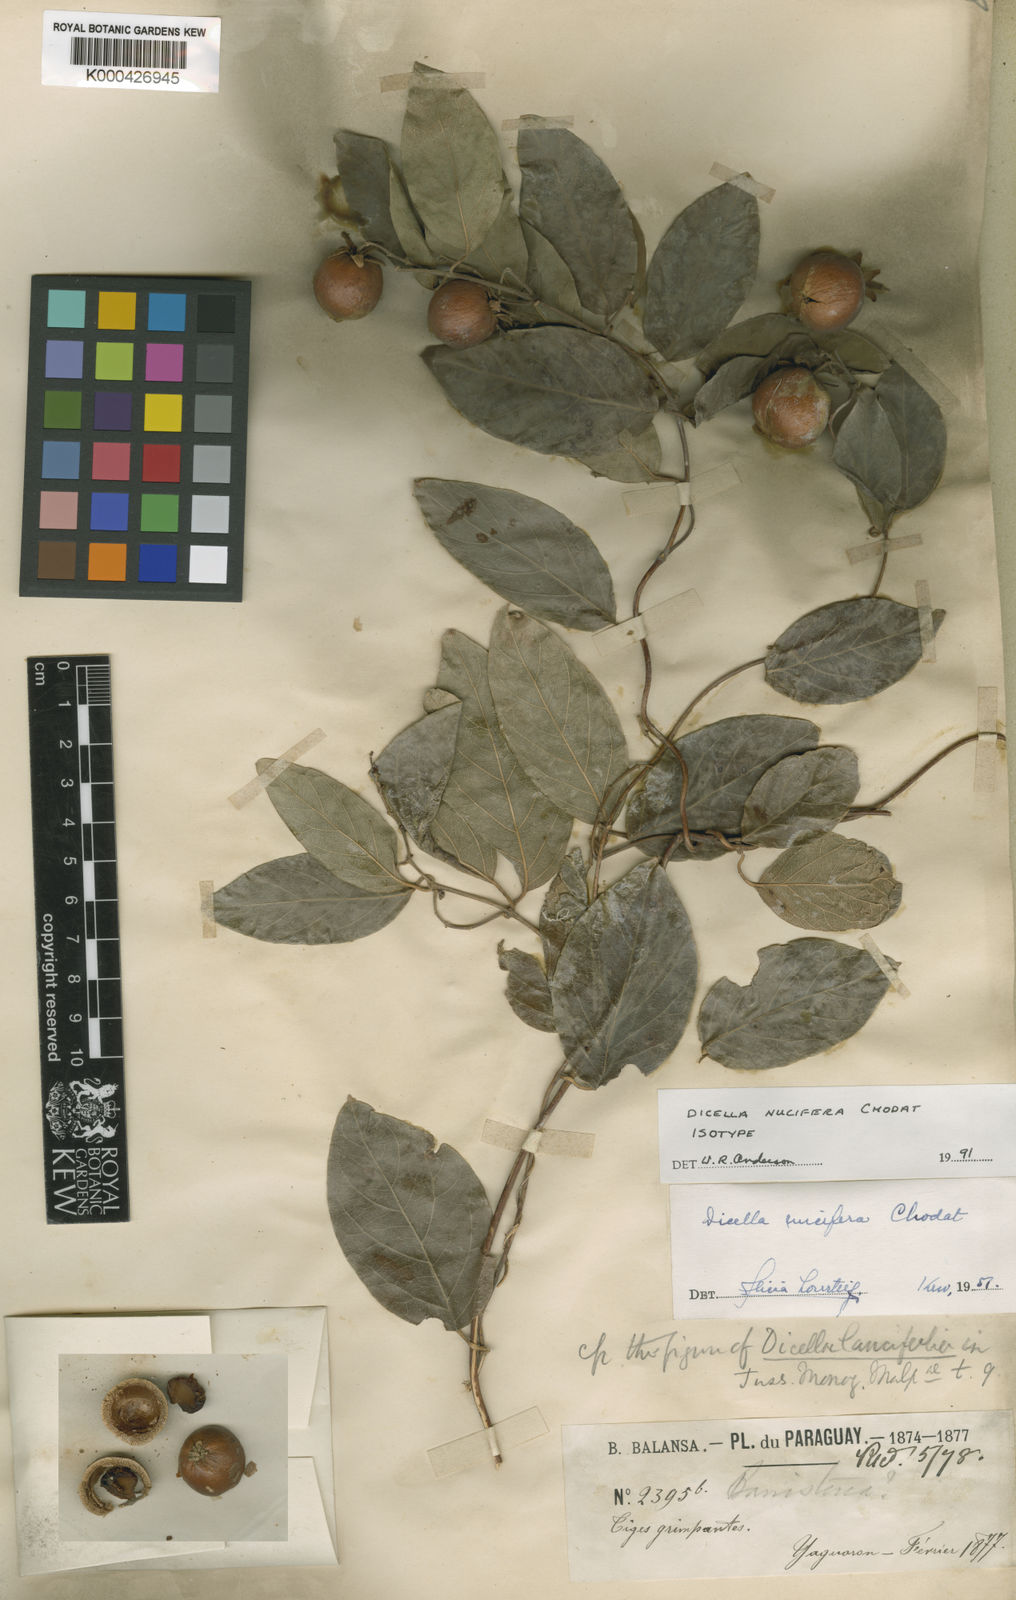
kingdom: Plantae
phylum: Tracheophyta
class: Magnoliopsida
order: Malpighiales
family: Malpighiaceae
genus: Dicella
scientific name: Dicella nucifera
